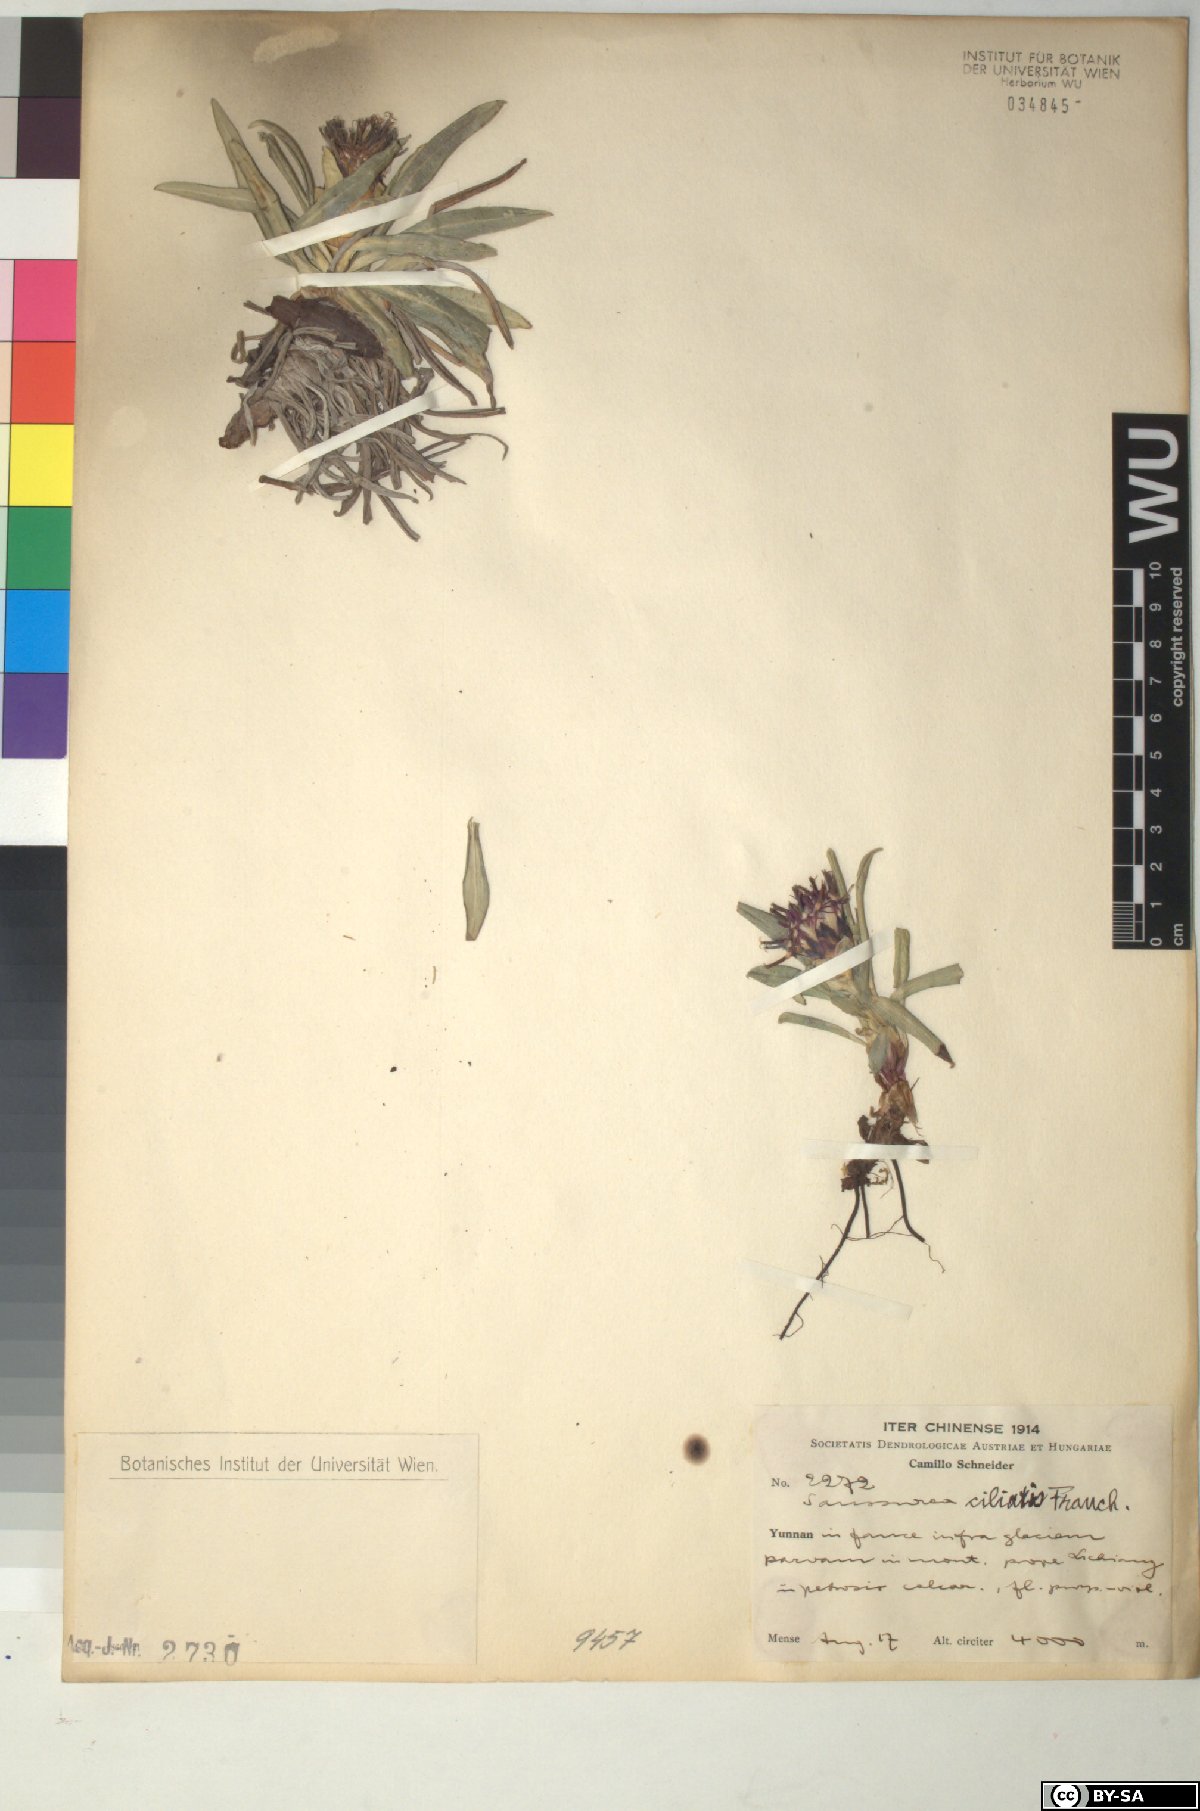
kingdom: Plantae
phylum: Tracheophyta
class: Magnoliopsida
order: Asterales
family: Asteraceae
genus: Saussurea
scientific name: Saussurea ciliaris
